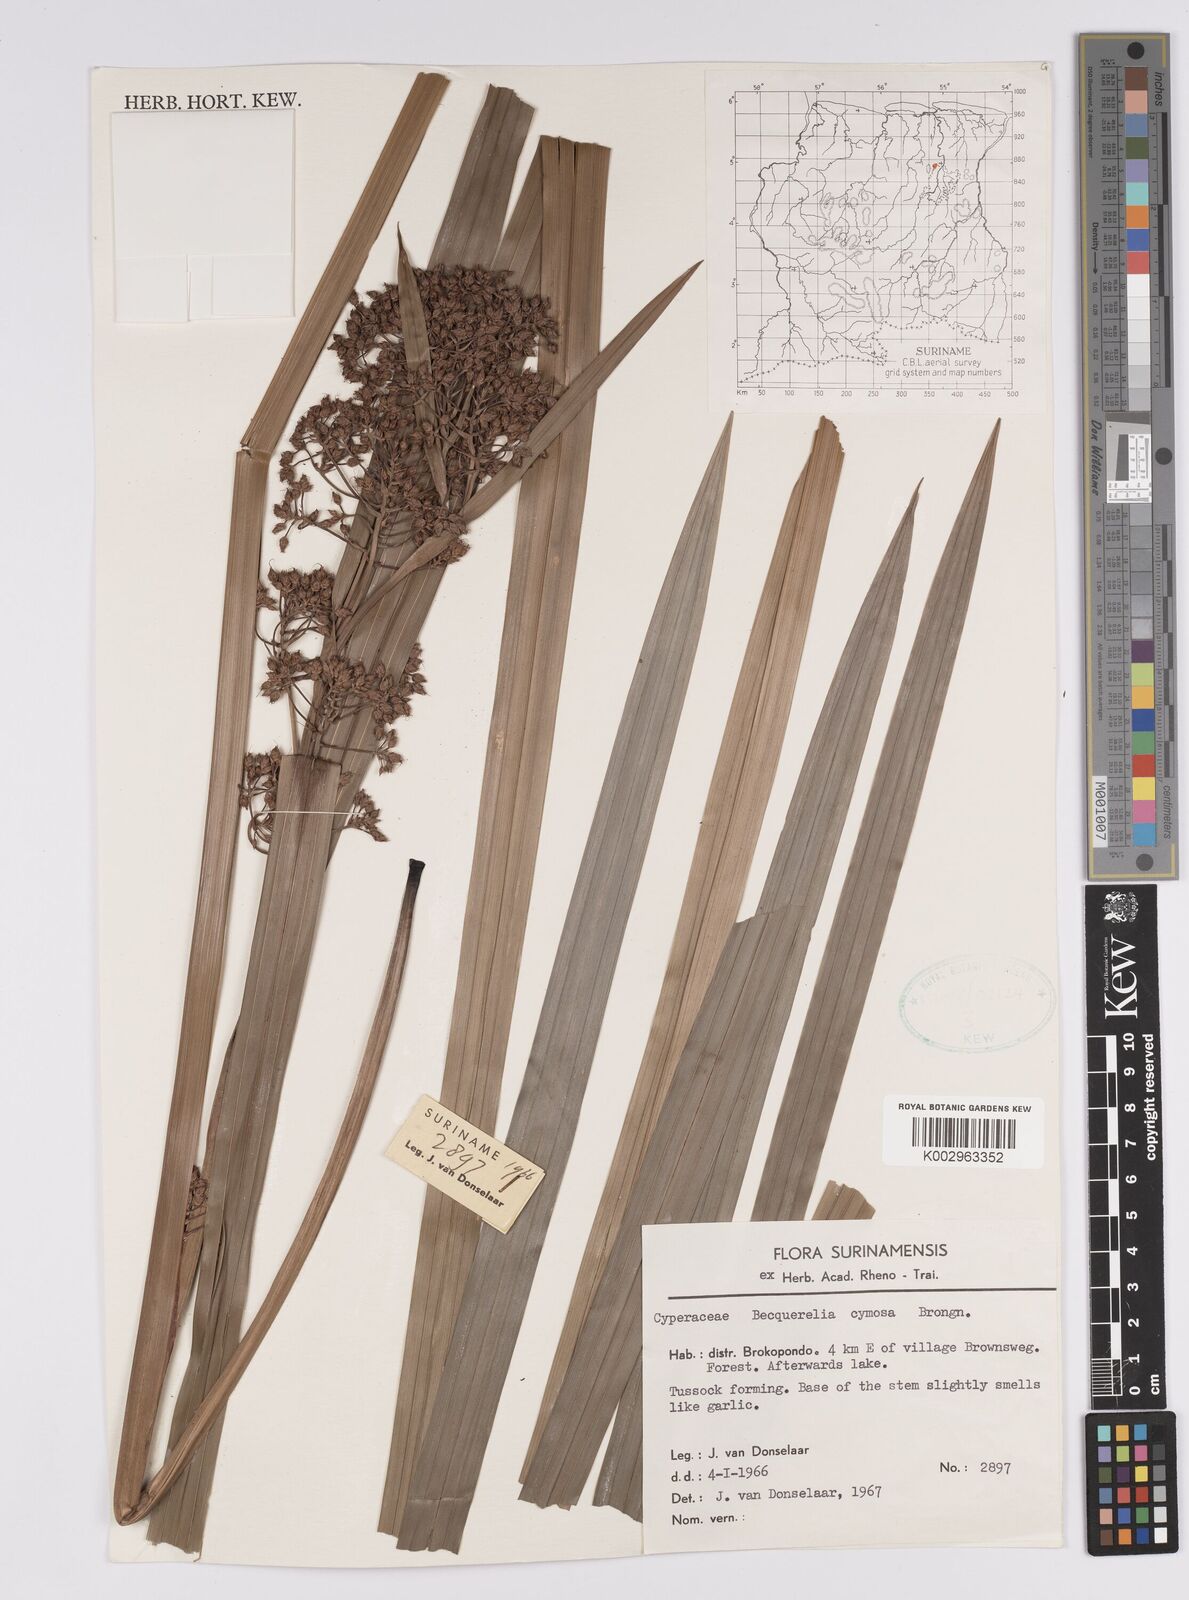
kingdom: Plantae
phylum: Tracheophyta
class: Liliopsida
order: Poales
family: Cyperaceae
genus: Becquerelia
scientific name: Becquerelia cymosa
